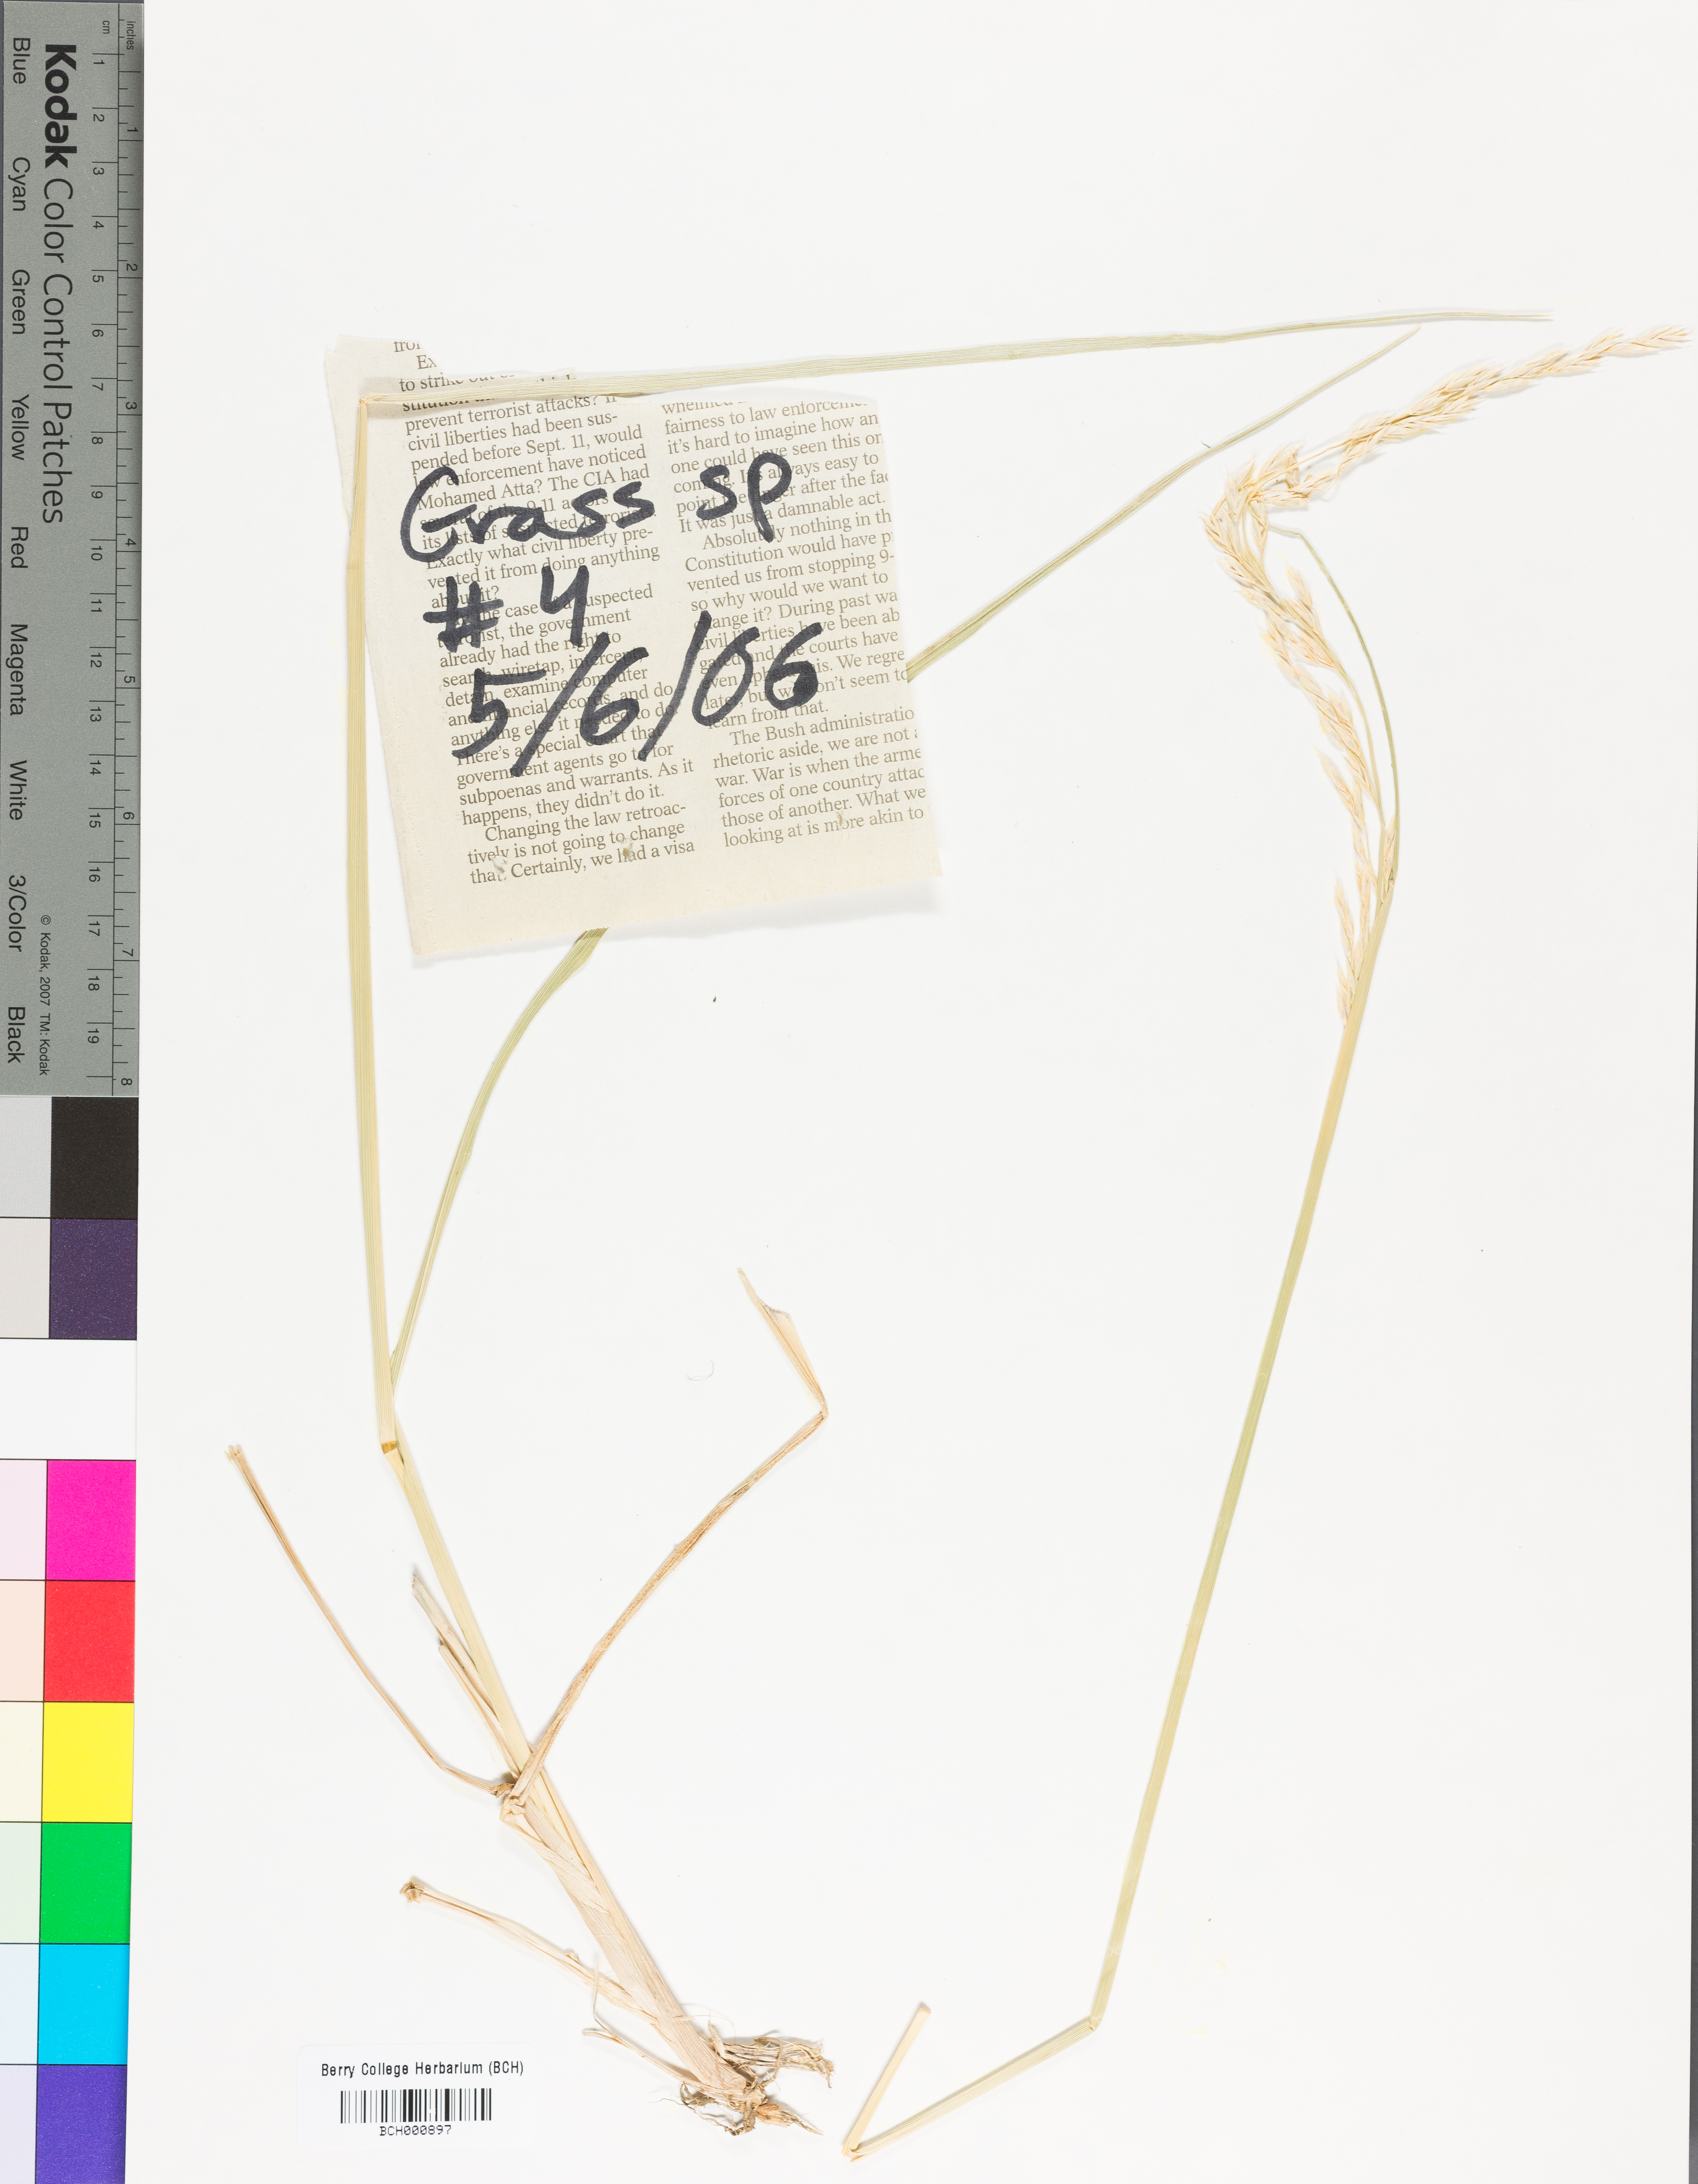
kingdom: Plantae
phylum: Tracheophyta
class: Magnoliopsida
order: Lamiales
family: Acanthaceae
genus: Adhatoda
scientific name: Adhatoda
